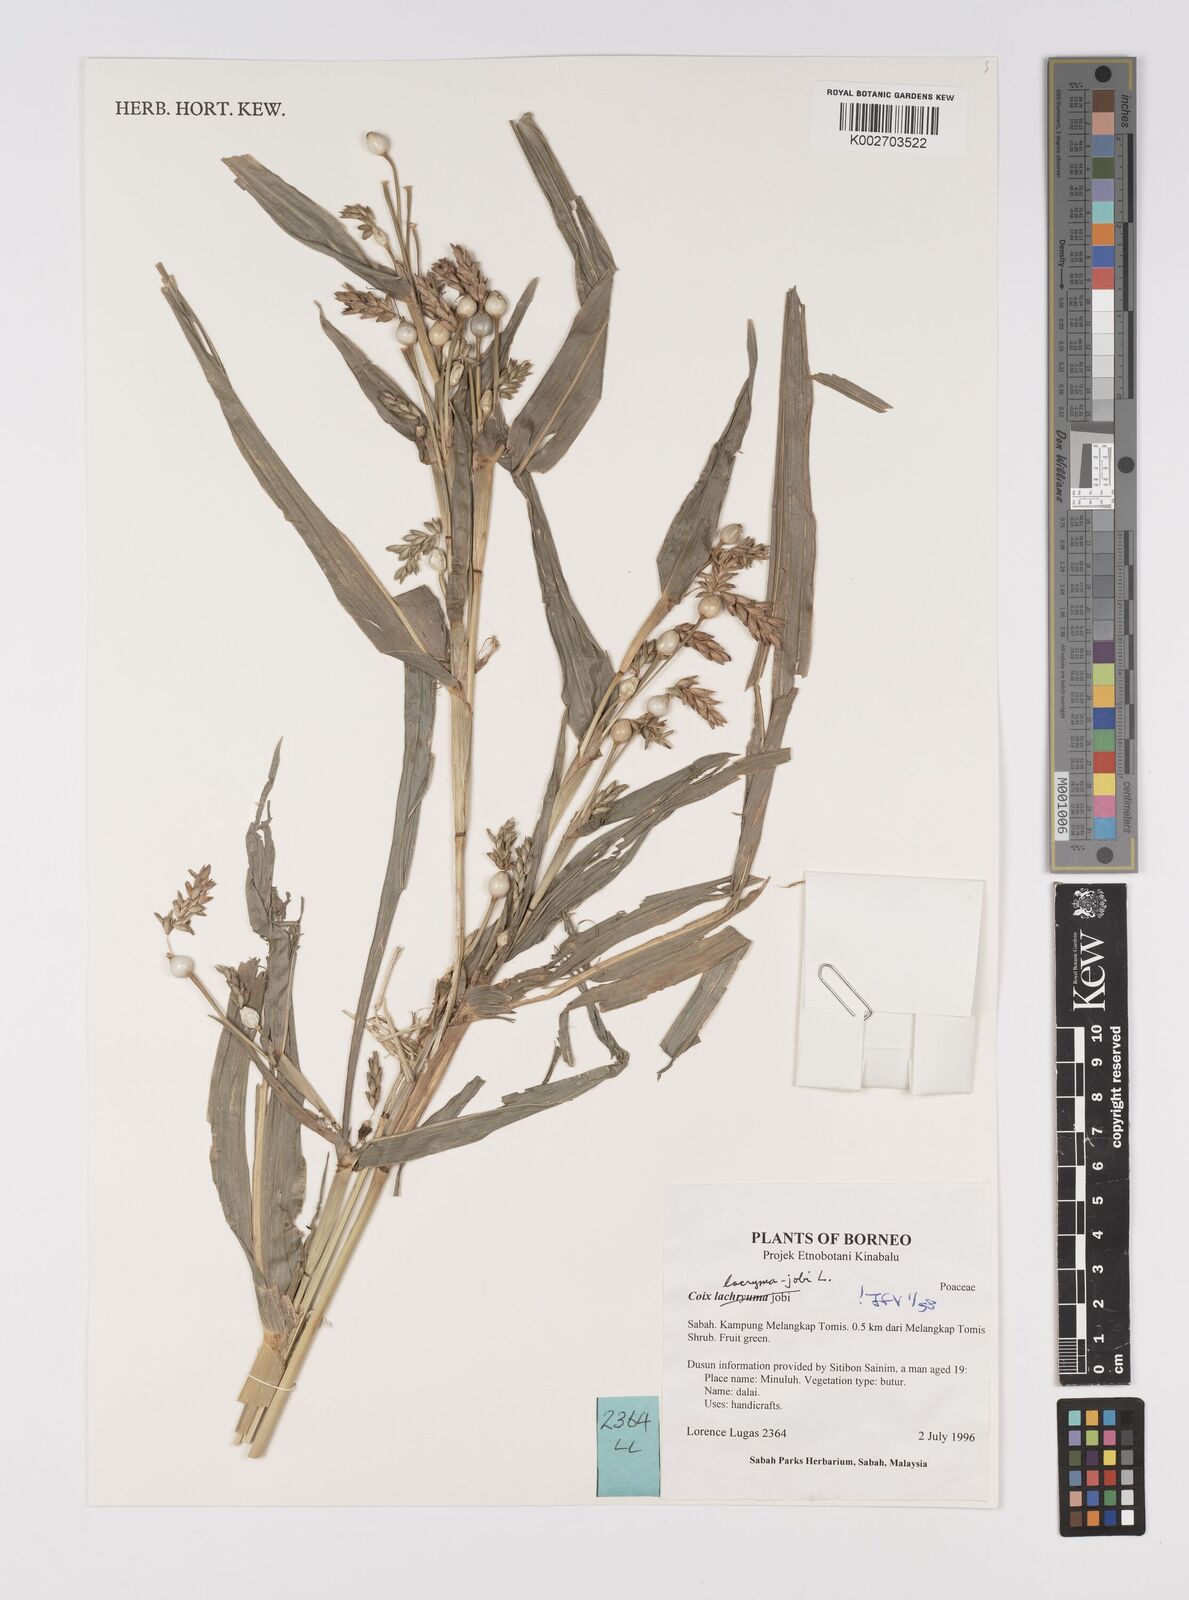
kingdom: Plantae
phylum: Tracheophyta
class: Liliopsida
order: Poales
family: Poaceae
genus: Coix
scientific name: Coix lacryma-jobi
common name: Job's tears
